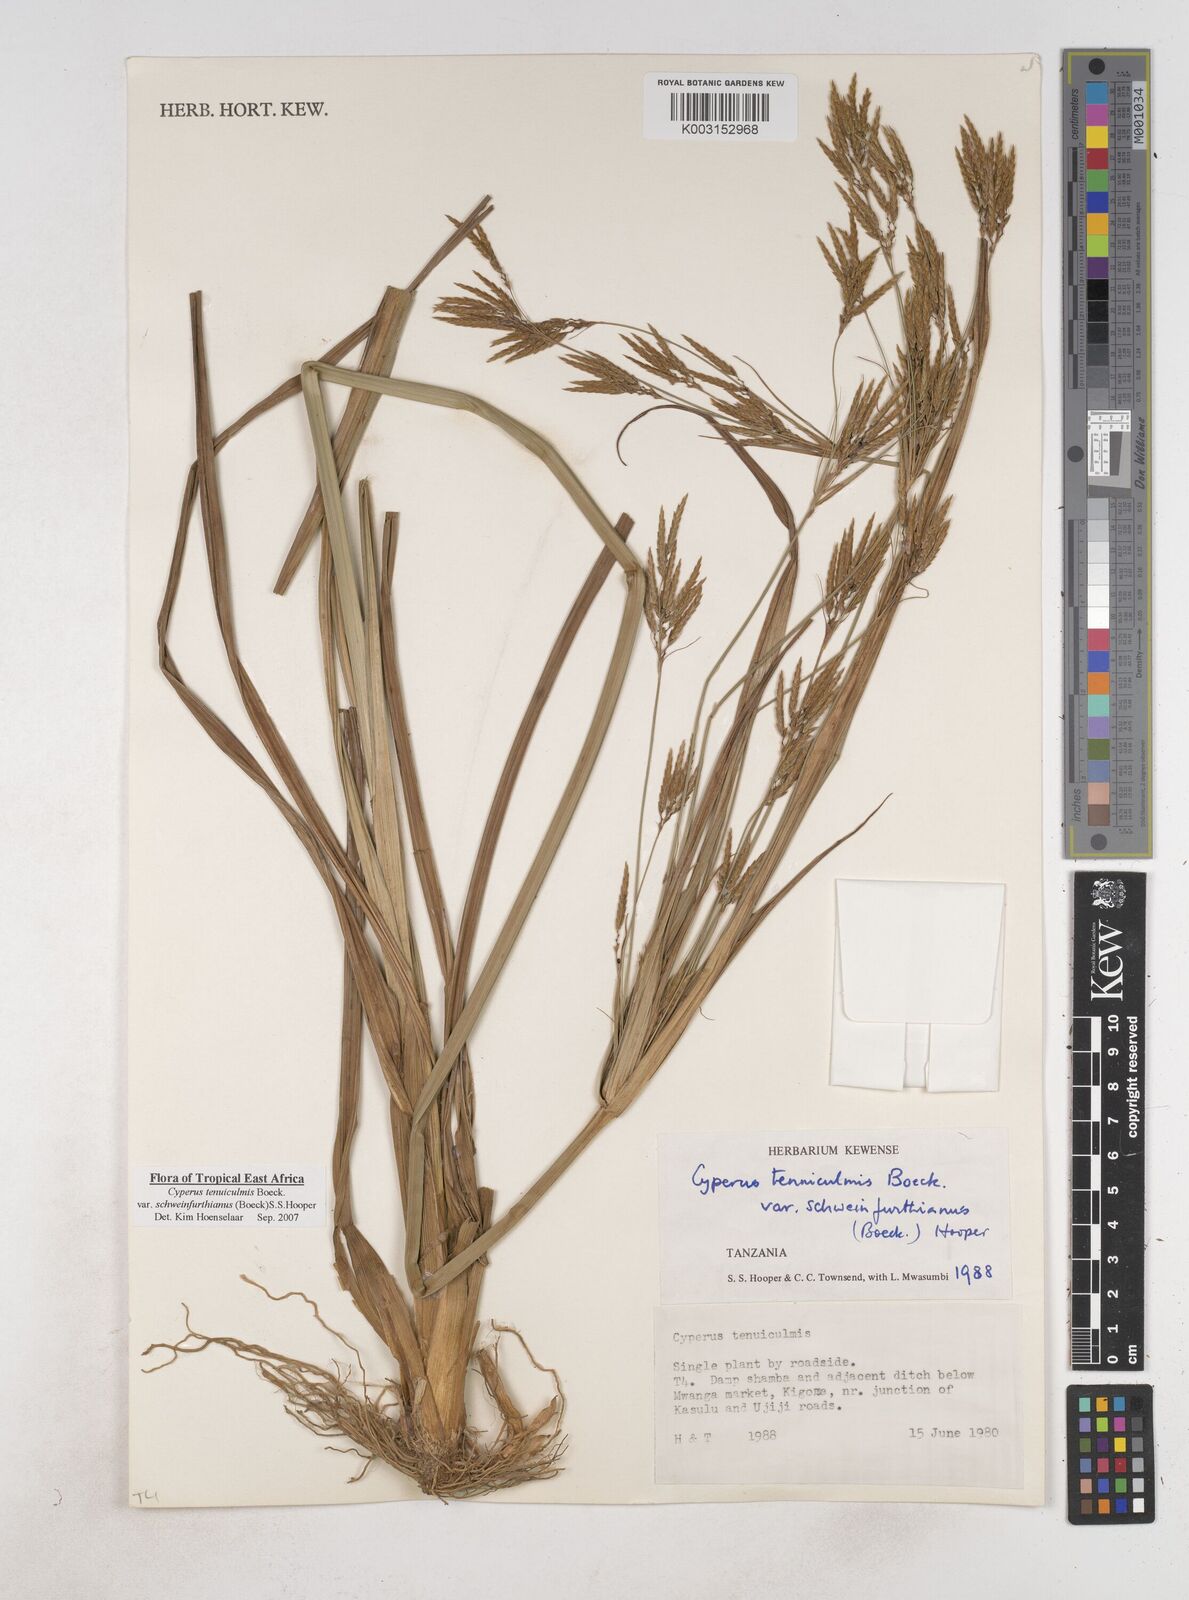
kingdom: Plantae
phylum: Tracheophyta
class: Liliopsida
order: Poales
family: Cyperaceae
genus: Cyperus
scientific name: Cyperus tenuiculmis
